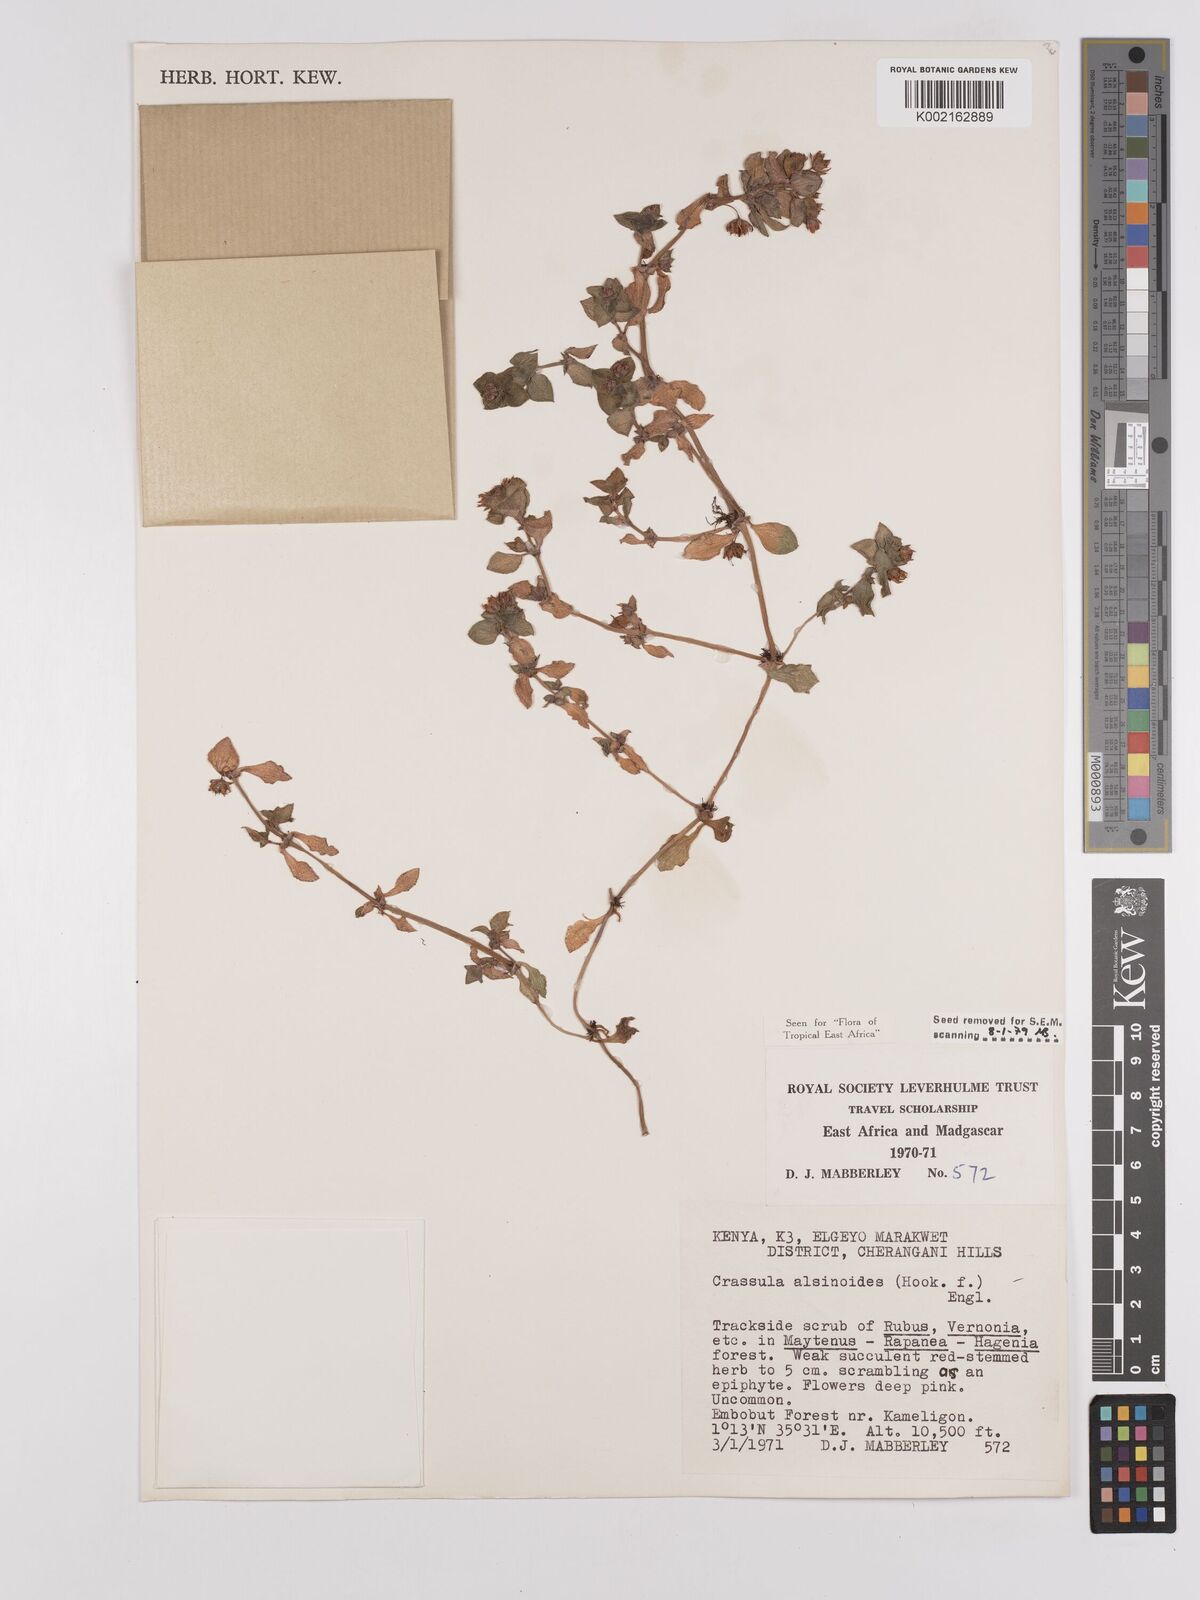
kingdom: Plantae
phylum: Tracheophyta
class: Magnoliopsida
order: Saxifragales
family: Crassulaceae
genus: Crassula
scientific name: Crassula alsinoides
